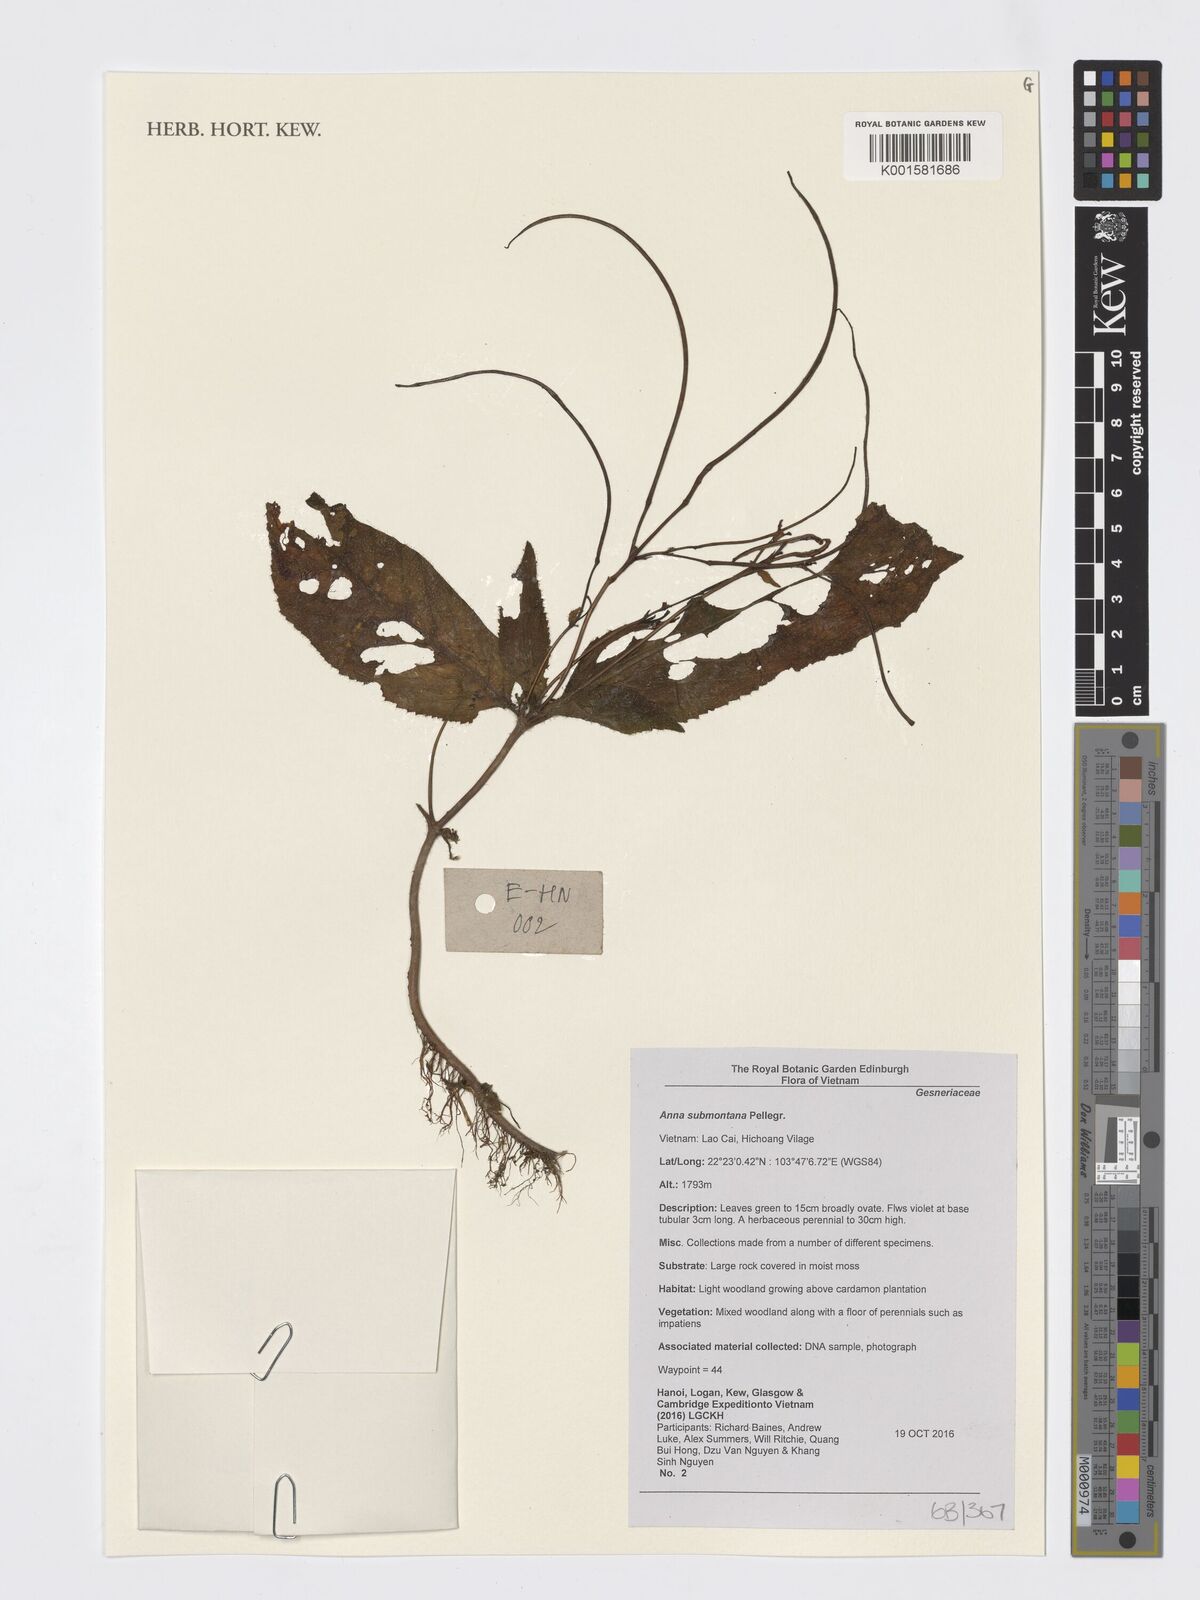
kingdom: Plantae
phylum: Tracheophyta
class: Magnoliopsida
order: Lamiales
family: Gesneriaceae
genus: Anna
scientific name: Anna submontana
